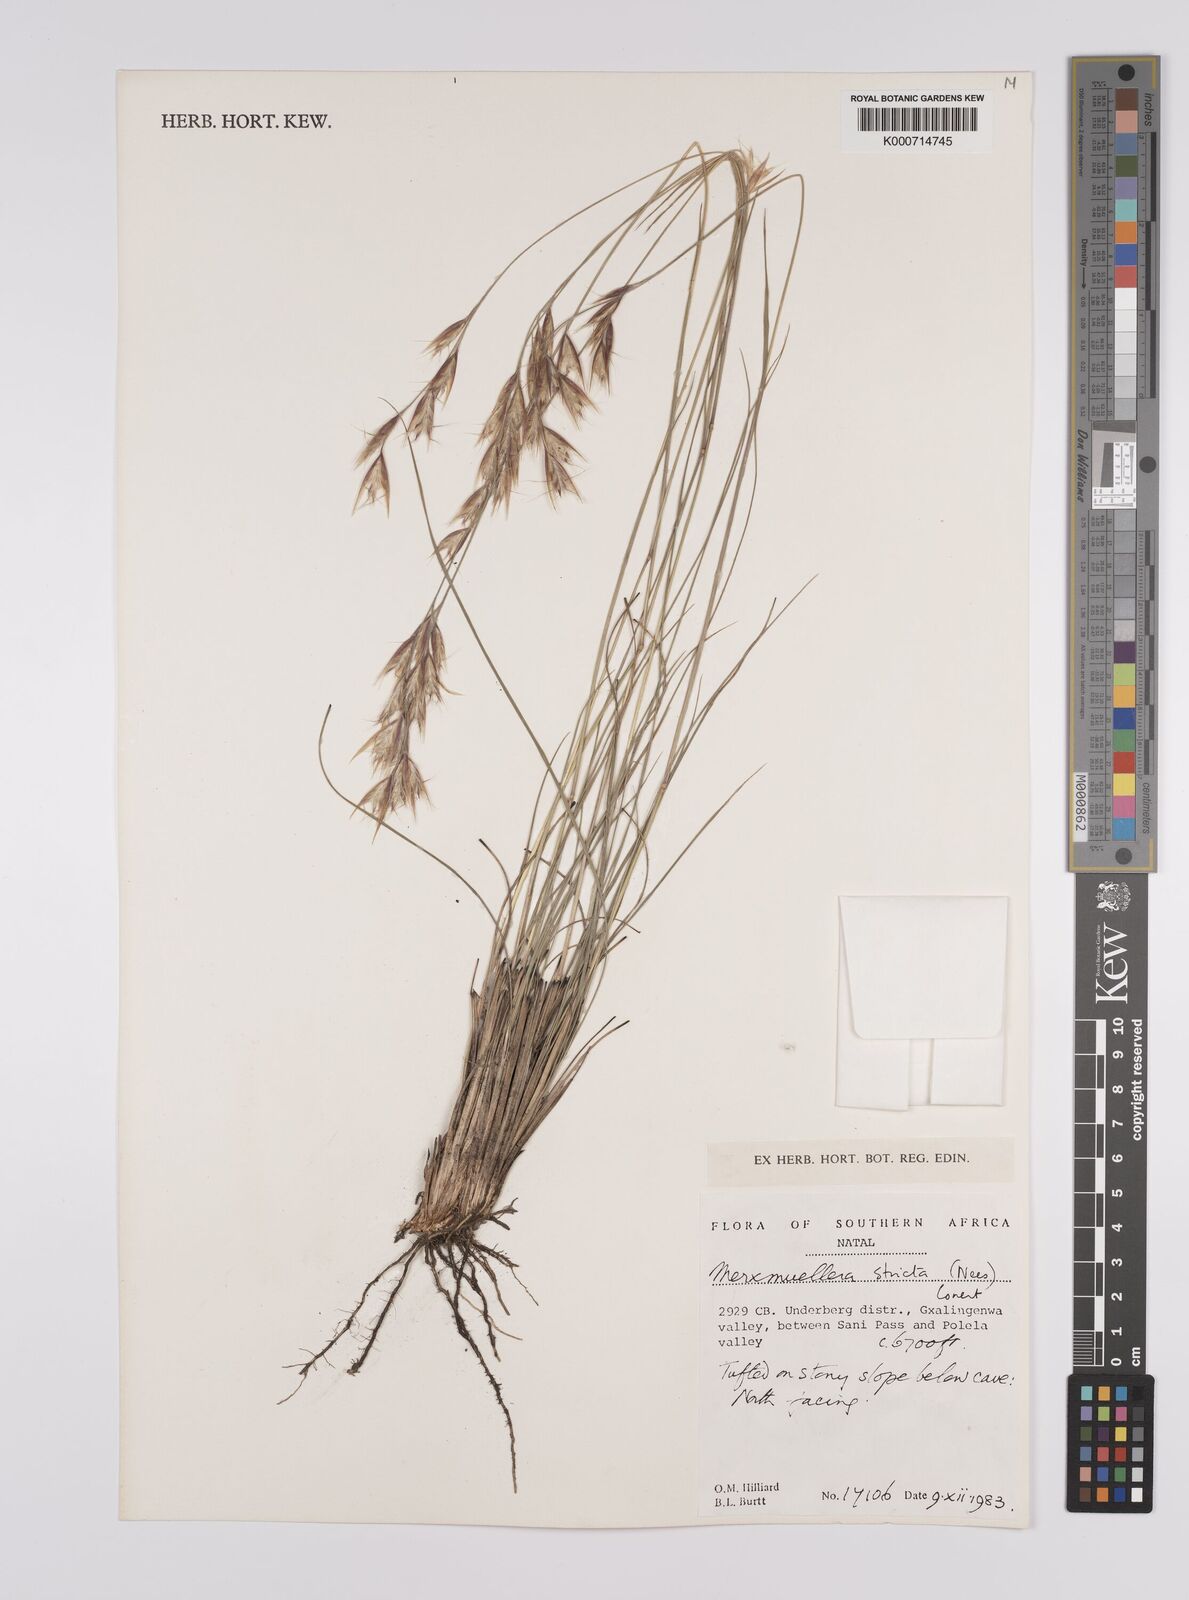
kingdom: Plantae
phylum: Tracheophyta
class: Liliopsida
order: Poales
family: Poaceae
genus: Rytidosperma
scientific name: Rytidosperma
